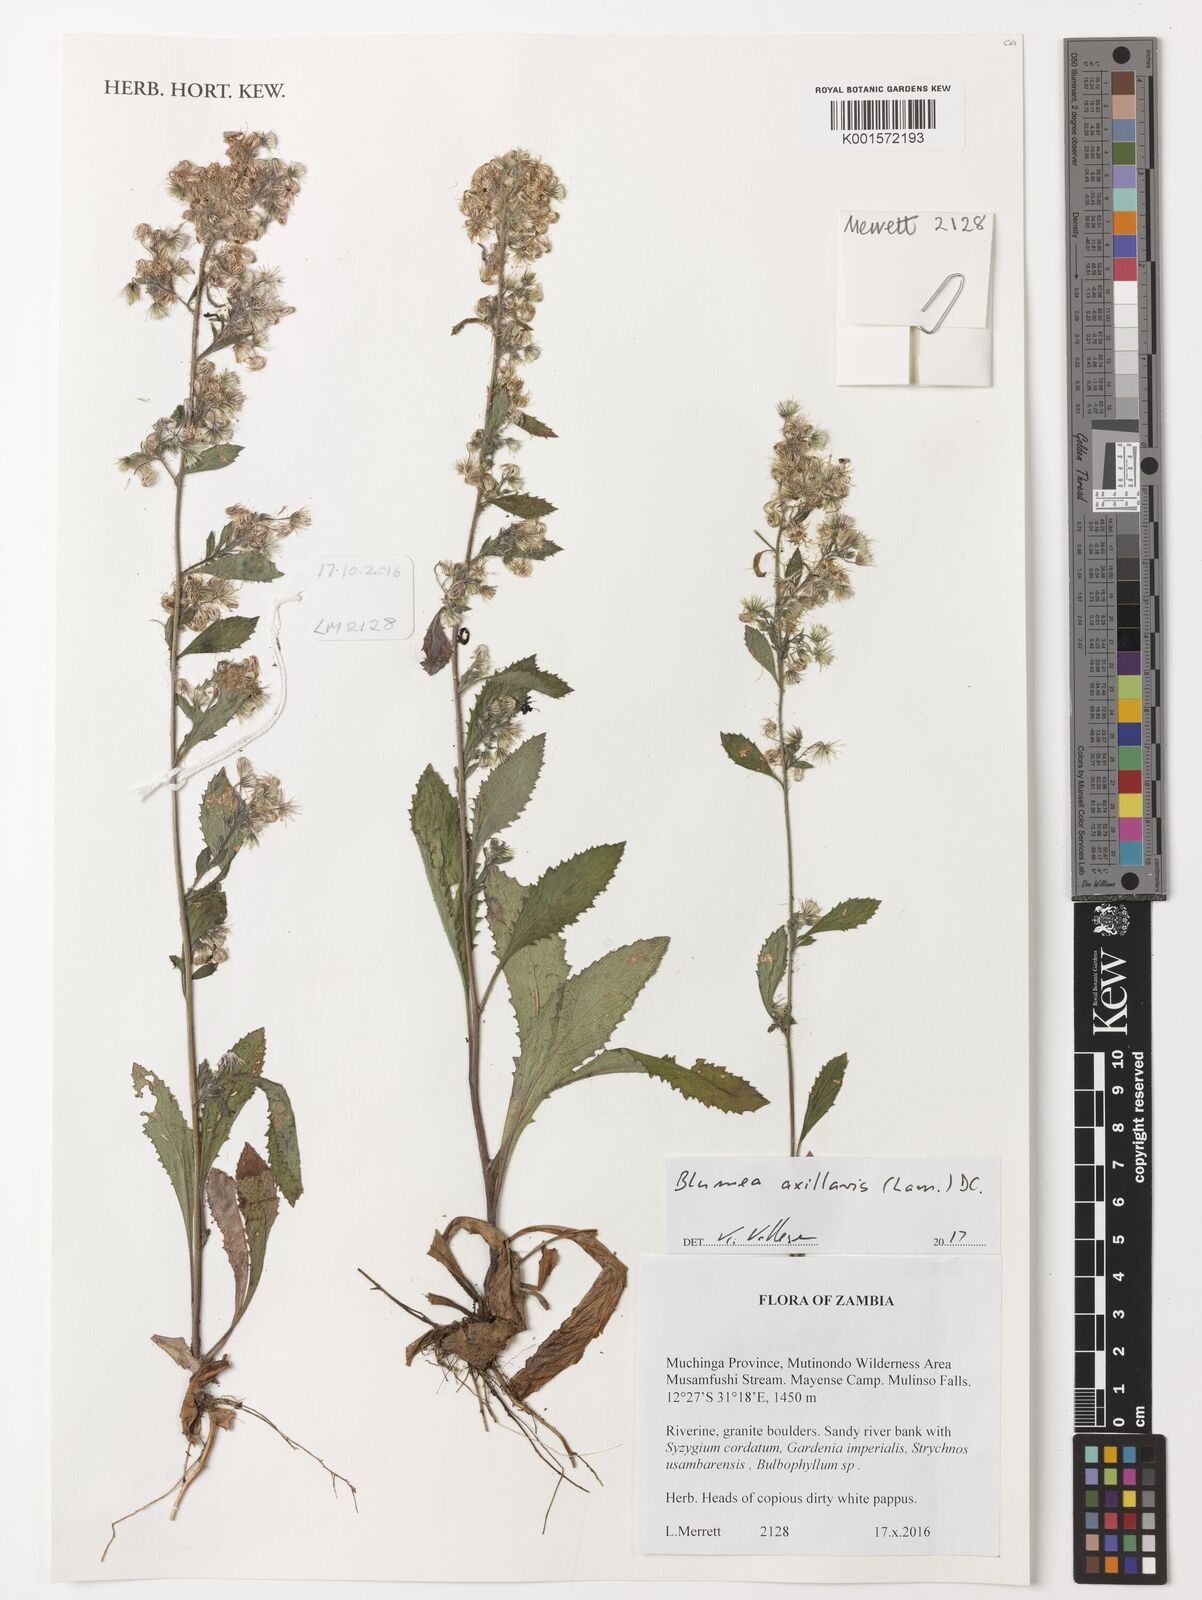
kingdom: Plantae
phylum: Tracheophyta
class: Magnoliopsida
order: Asterales
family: Asteraceae
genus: Blumea
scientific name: Blumea axillaris
